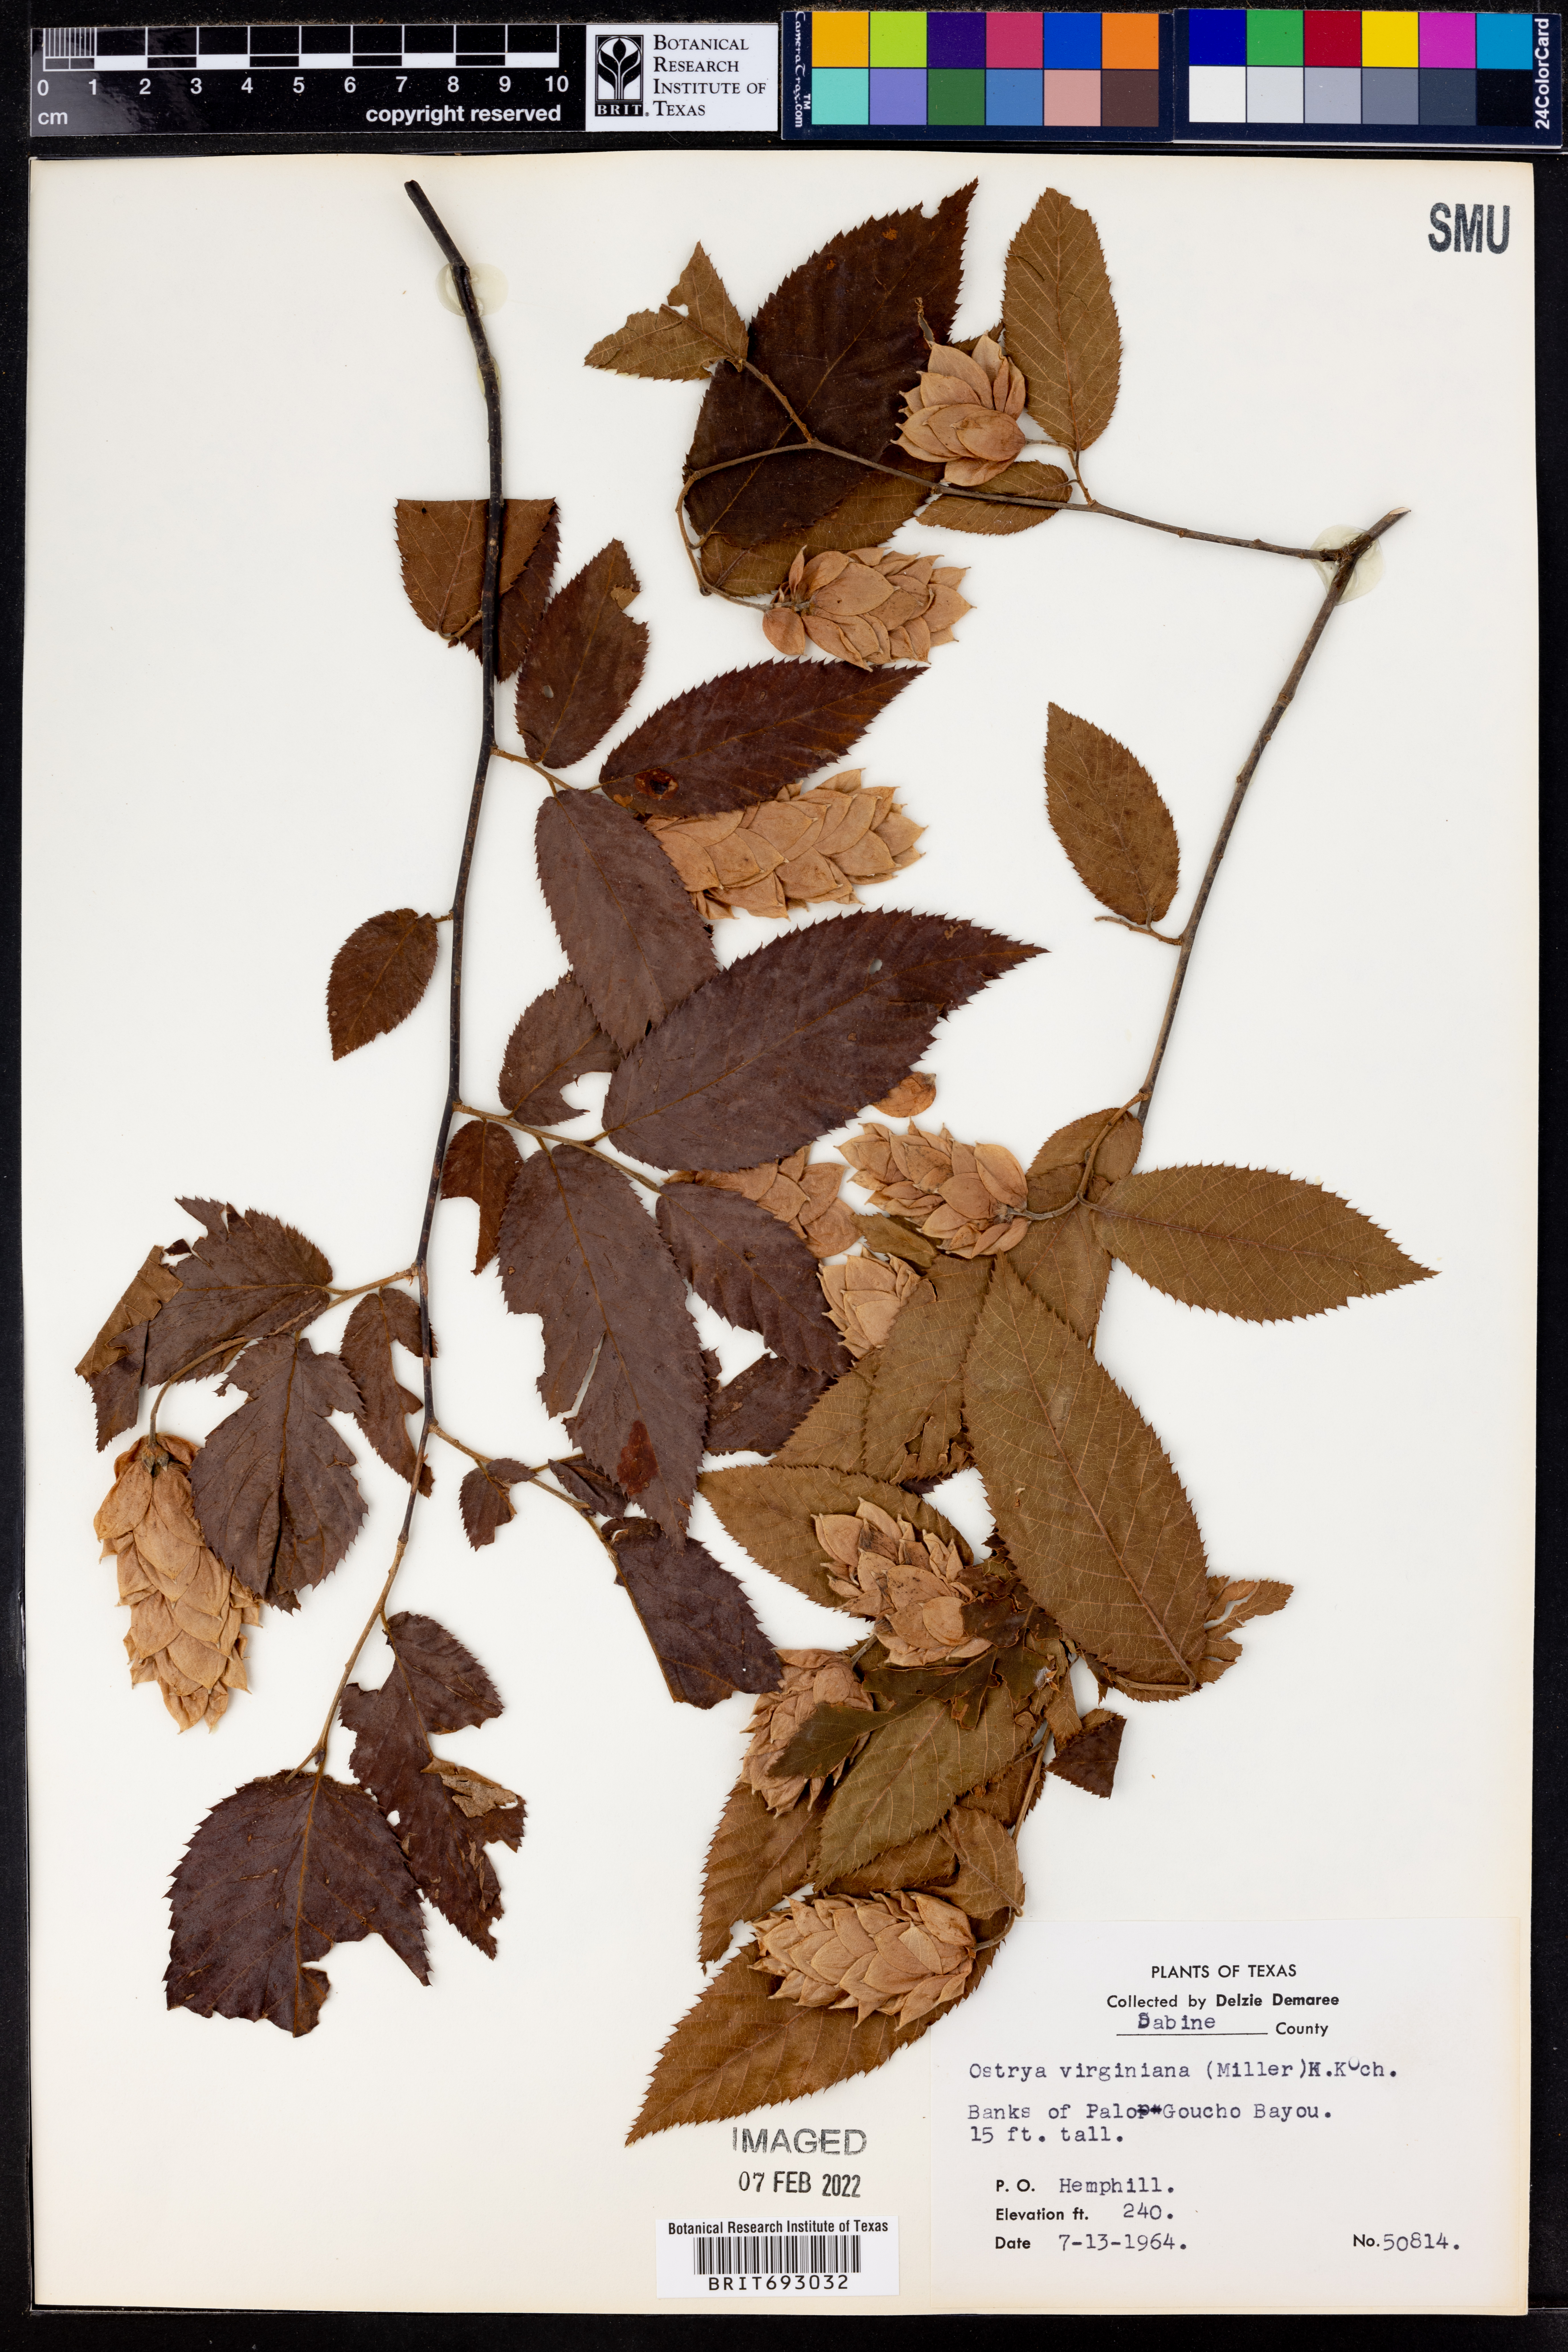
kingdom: Plantae
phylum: Tracheophyta
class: Magnoliopsida
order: Fagales
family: Betulaceae
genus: Ostrya
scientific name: Ostrya virginiana
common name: Ironwood
